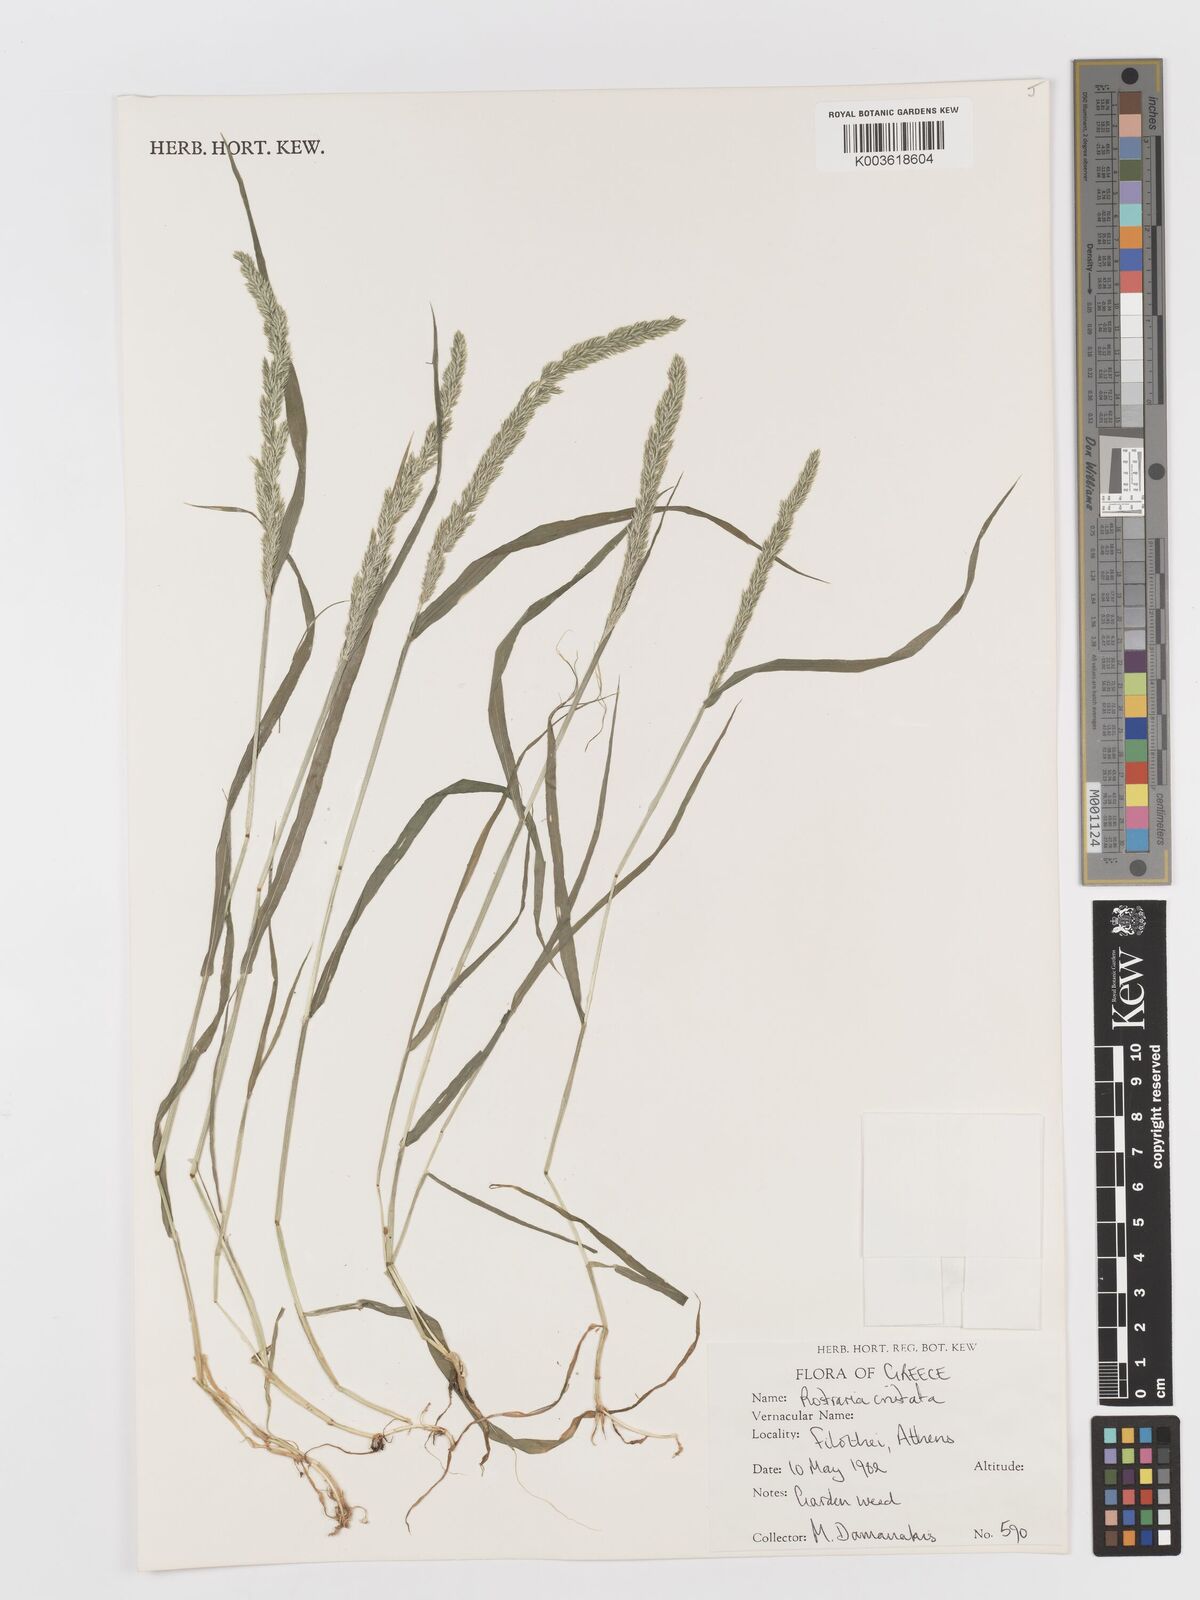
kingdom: Plantae
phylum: Tracheophyta
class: Liliopsida
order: Poales
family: Poaceae
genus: Rostraria
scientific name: Rostraria cristata
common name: Mediterranean hair-grass
